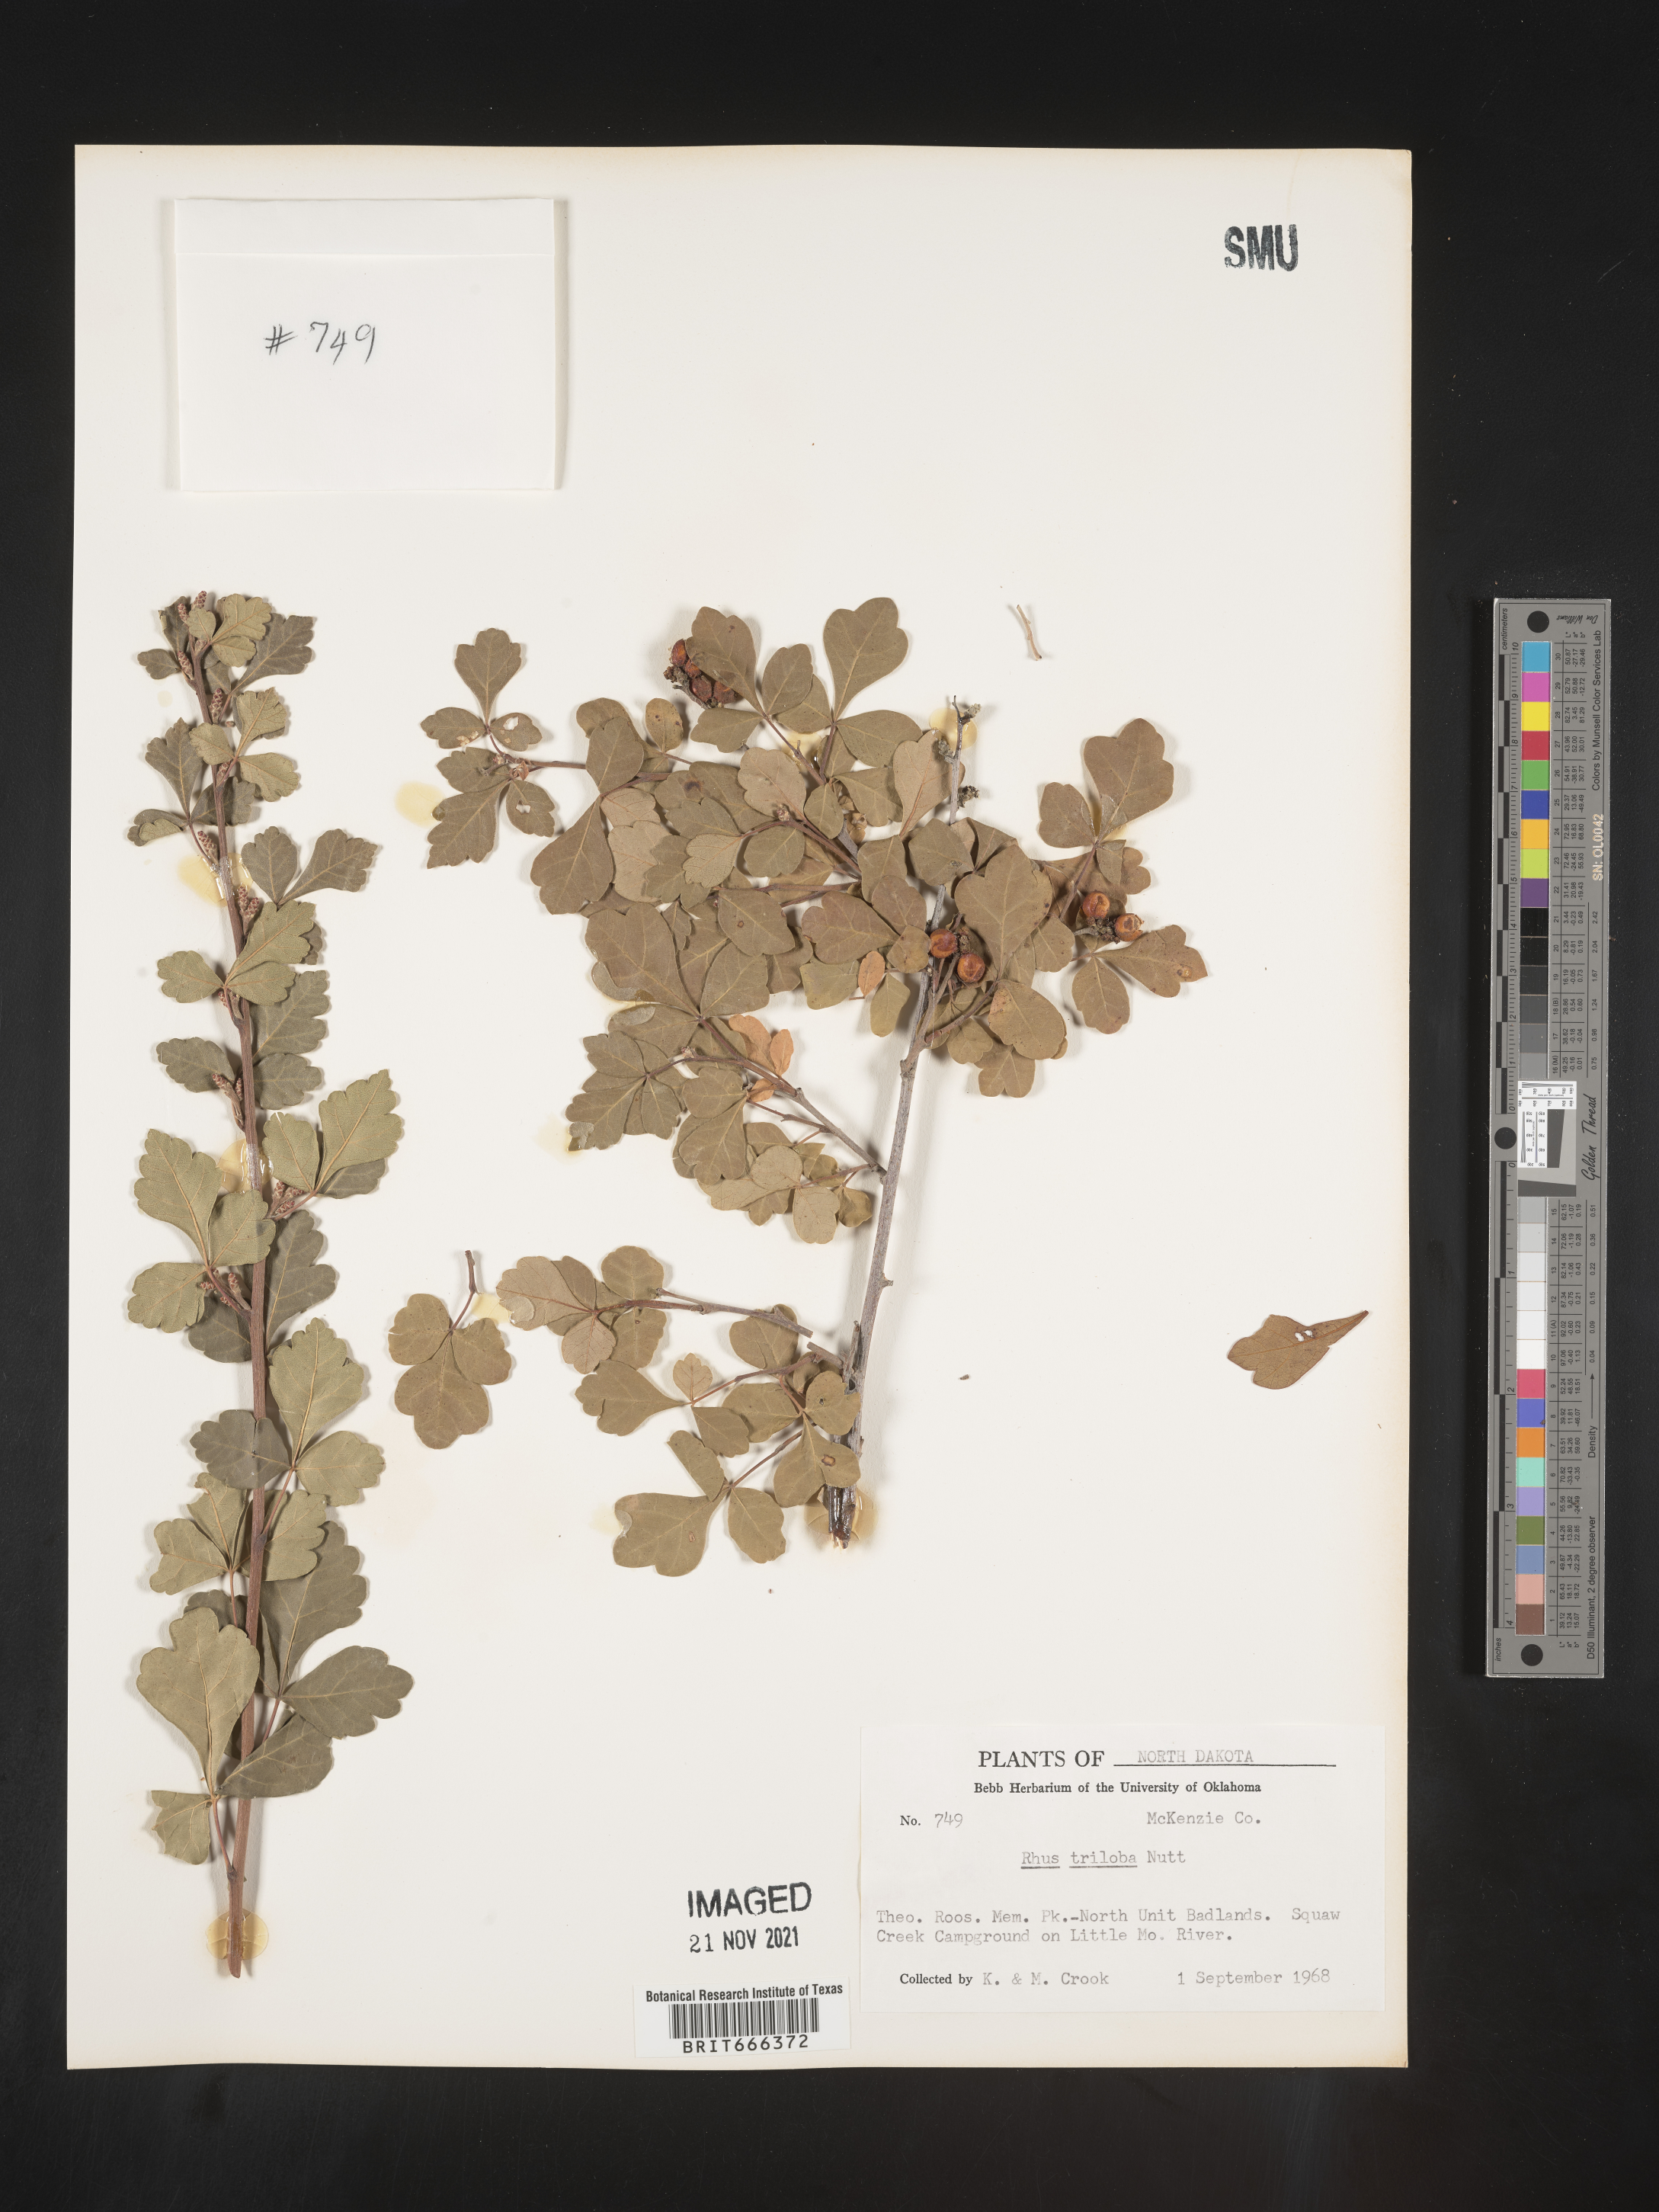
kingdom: Plantae
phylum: Tracheophyta
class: Magnoliopsida
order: Sapindales
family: Anacardiaceae
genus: Rhus
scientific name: Rhus trilobata
